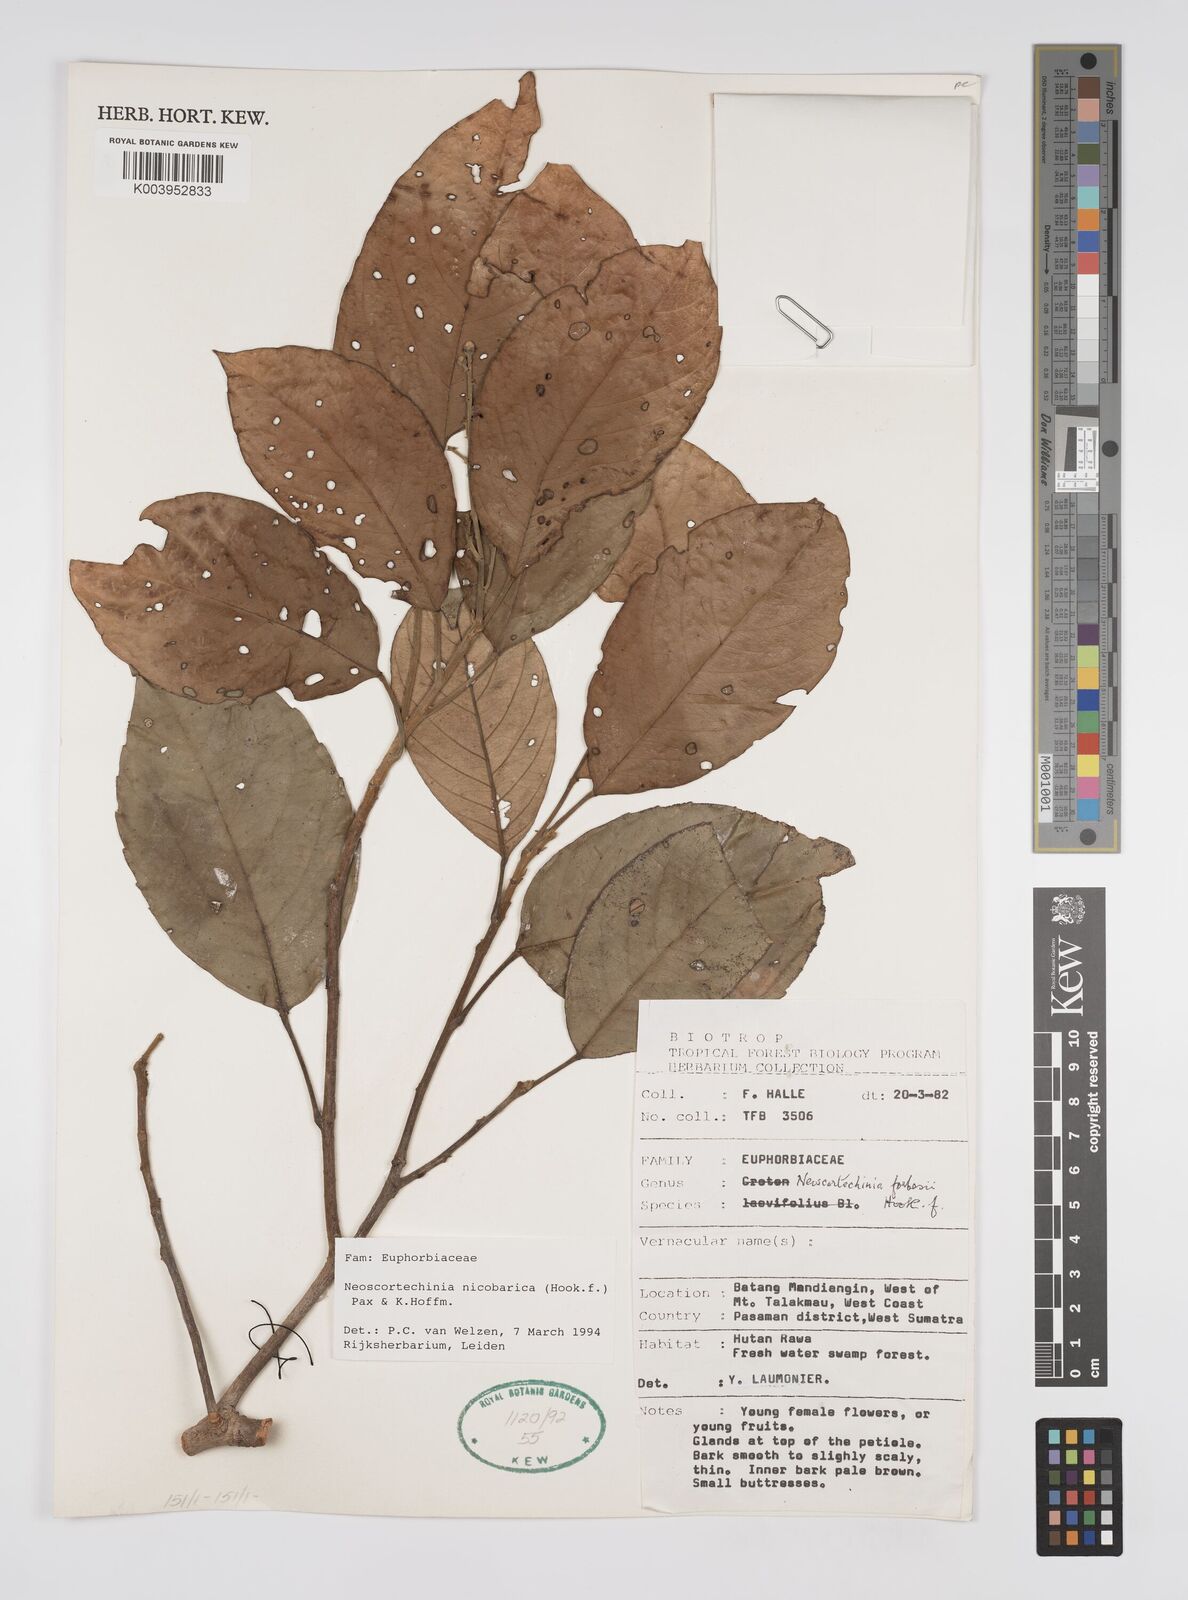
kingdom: Plantae
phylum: Tracheophyta
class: Magnoliopsida
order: Malpighiales
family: Euphorbiaceae
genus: Neoscortechinia
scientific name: Neoscortechinia nicobarica
